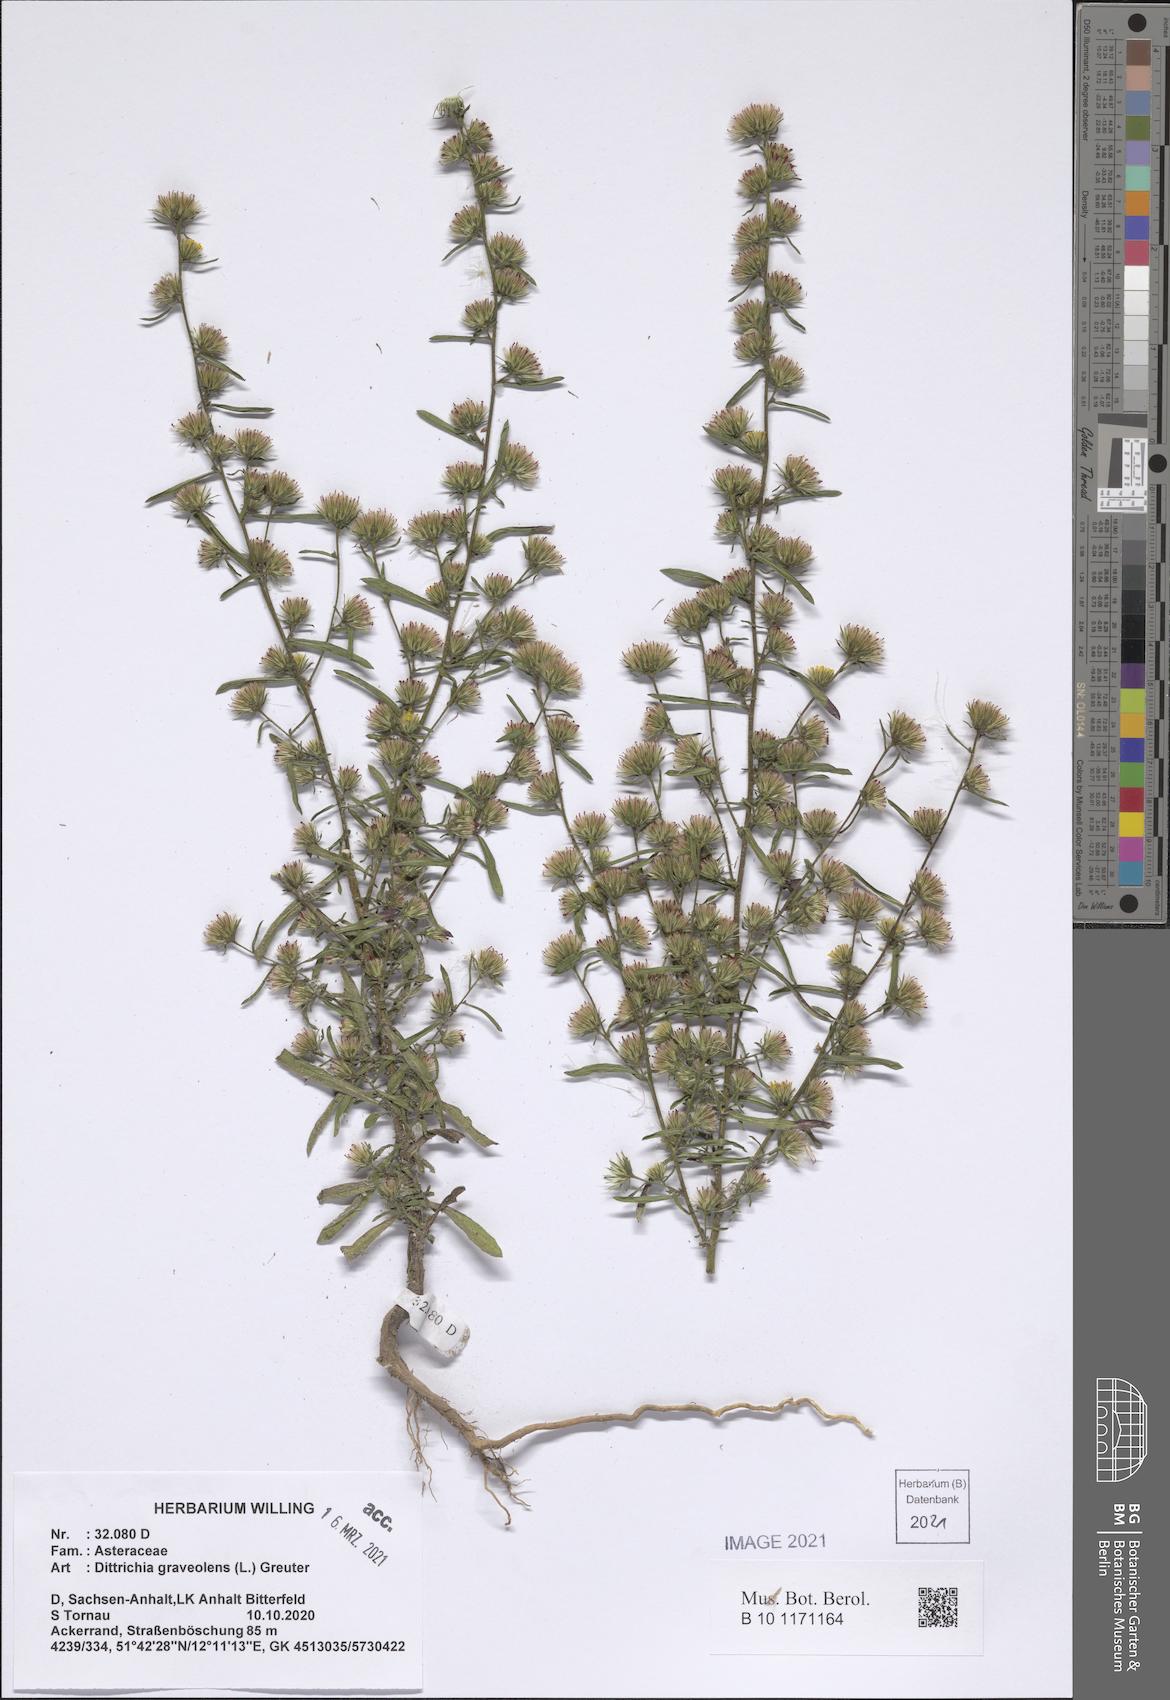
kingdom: Plantae
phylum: Tracheophyta
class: Magnoliopsida
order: Asterales
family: Asteraceae
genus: Dittrichia
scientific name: Dittrichia graveolens
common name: Stinking fleabane
